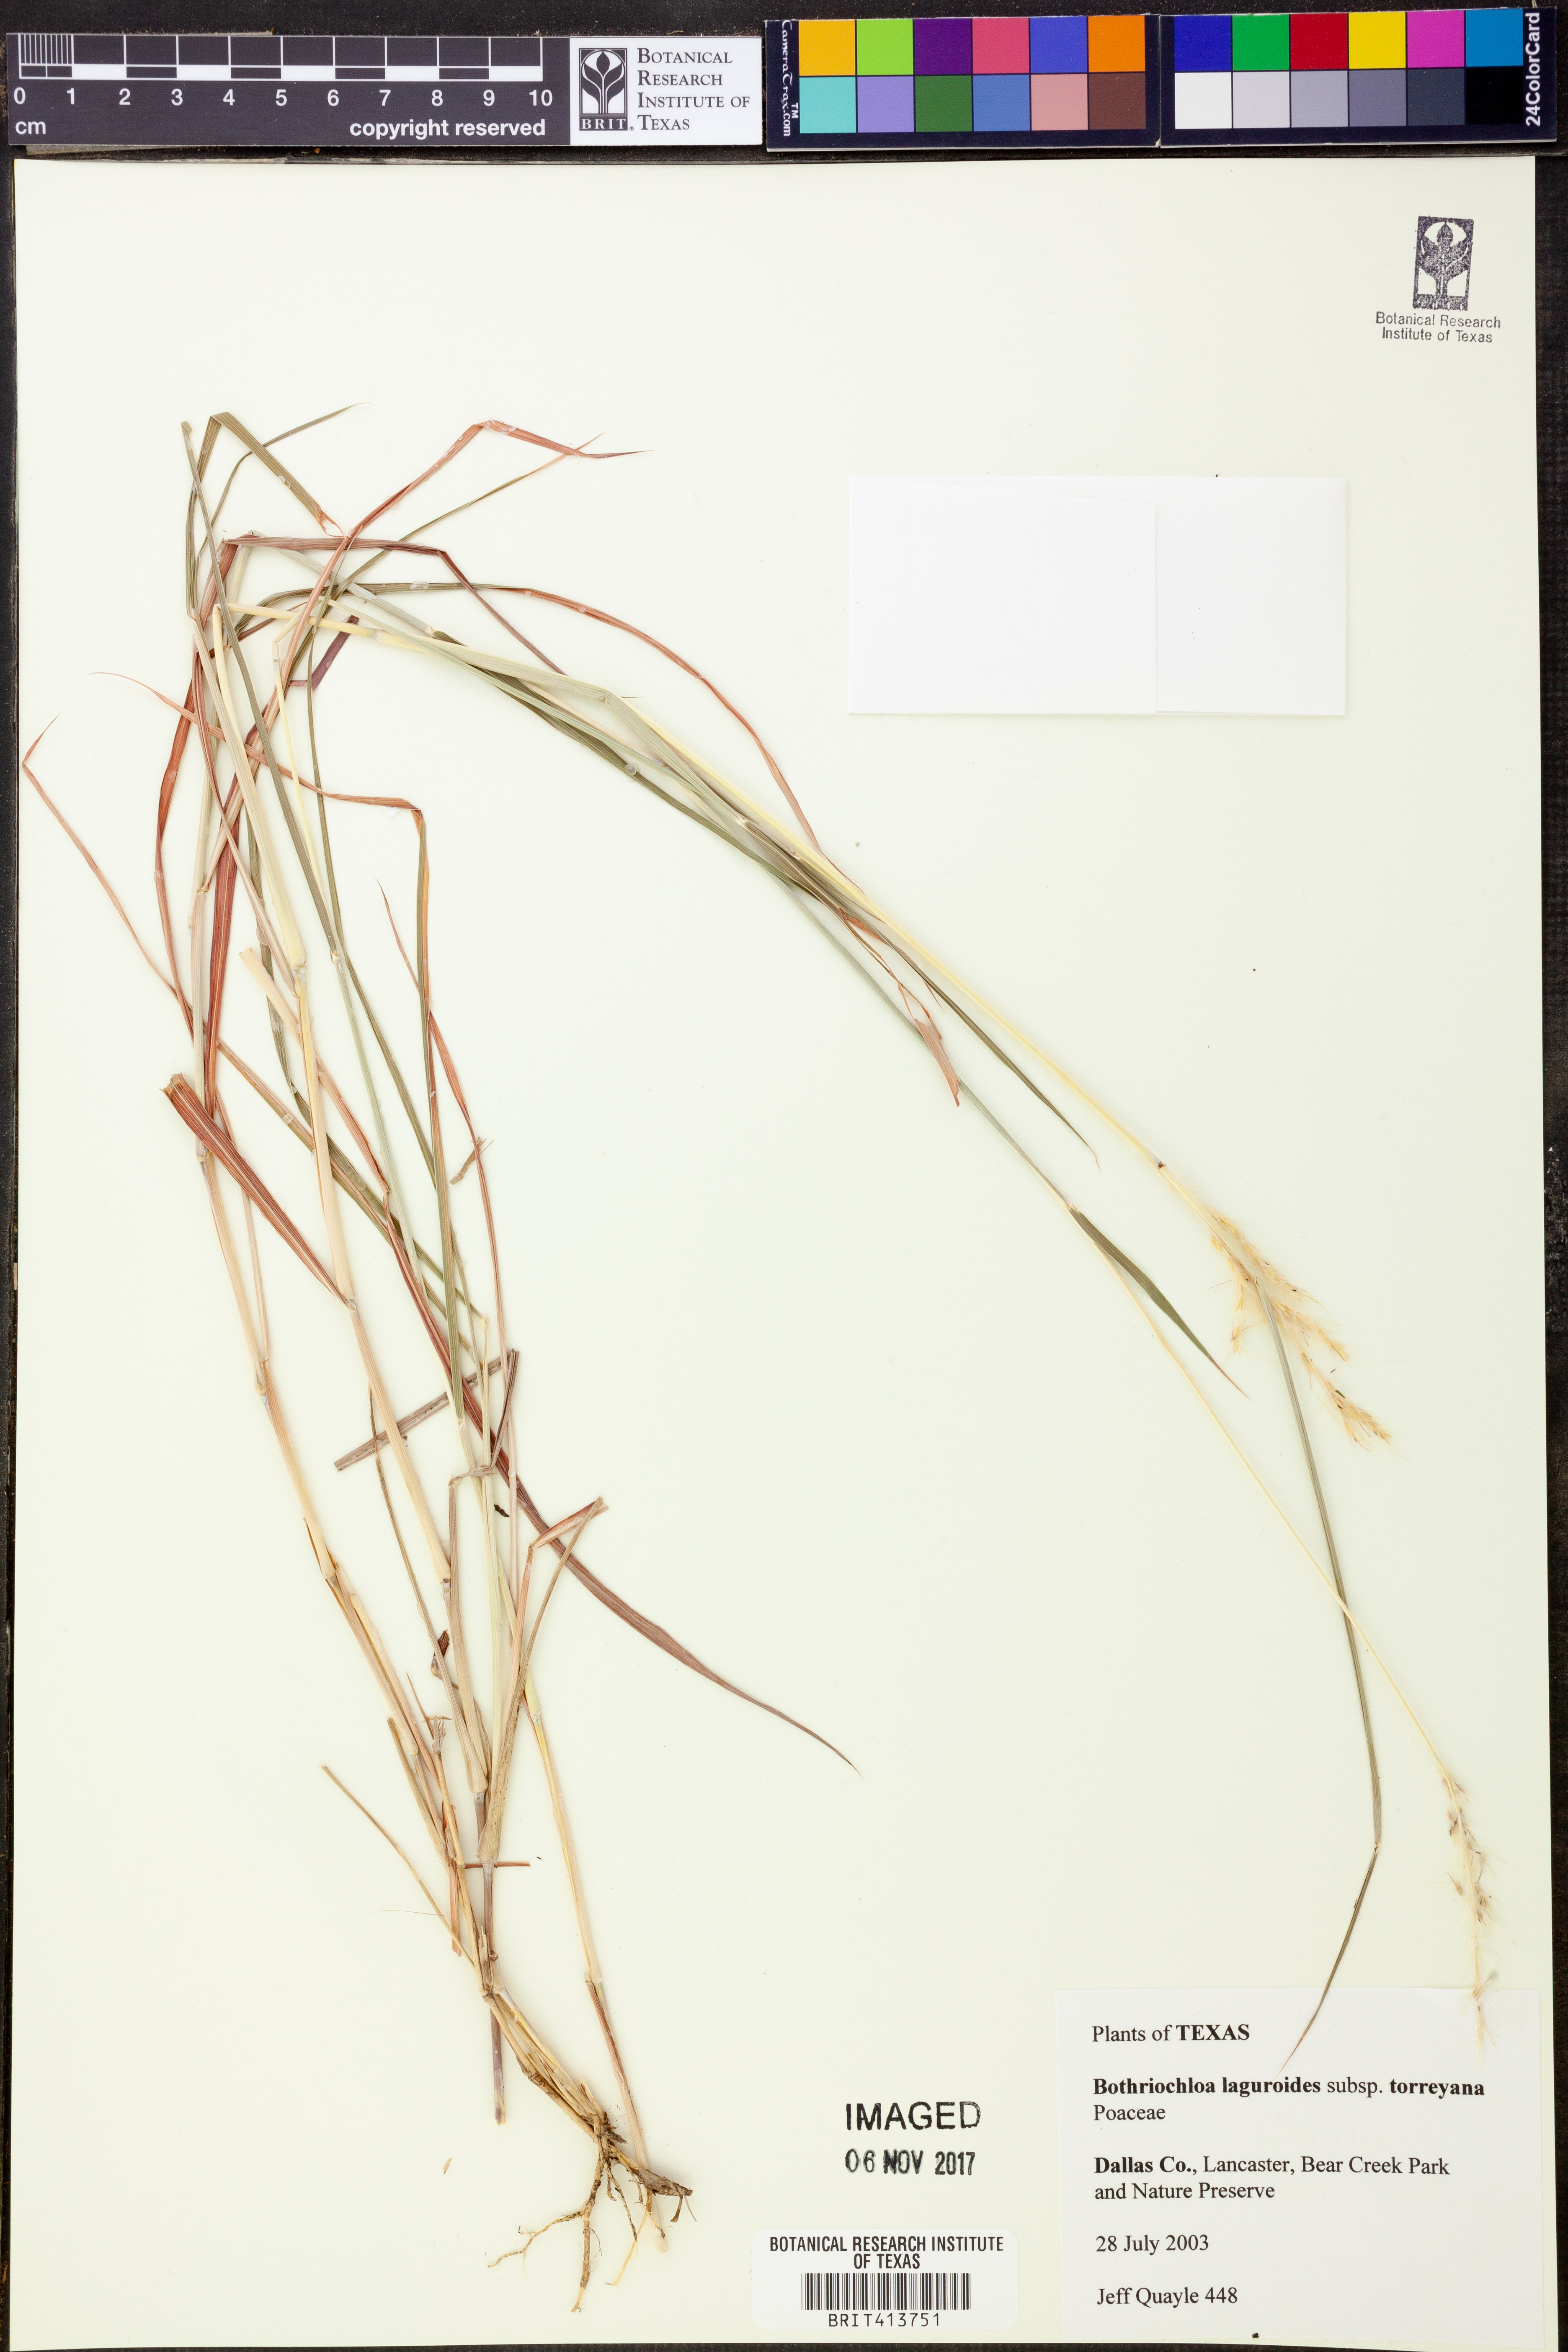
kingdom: Plantae
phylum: Tracheophyta
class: Liliopsida
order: Poales
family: Poaceae
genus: Bothriochloa
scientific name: Bothriochloa torreyana
